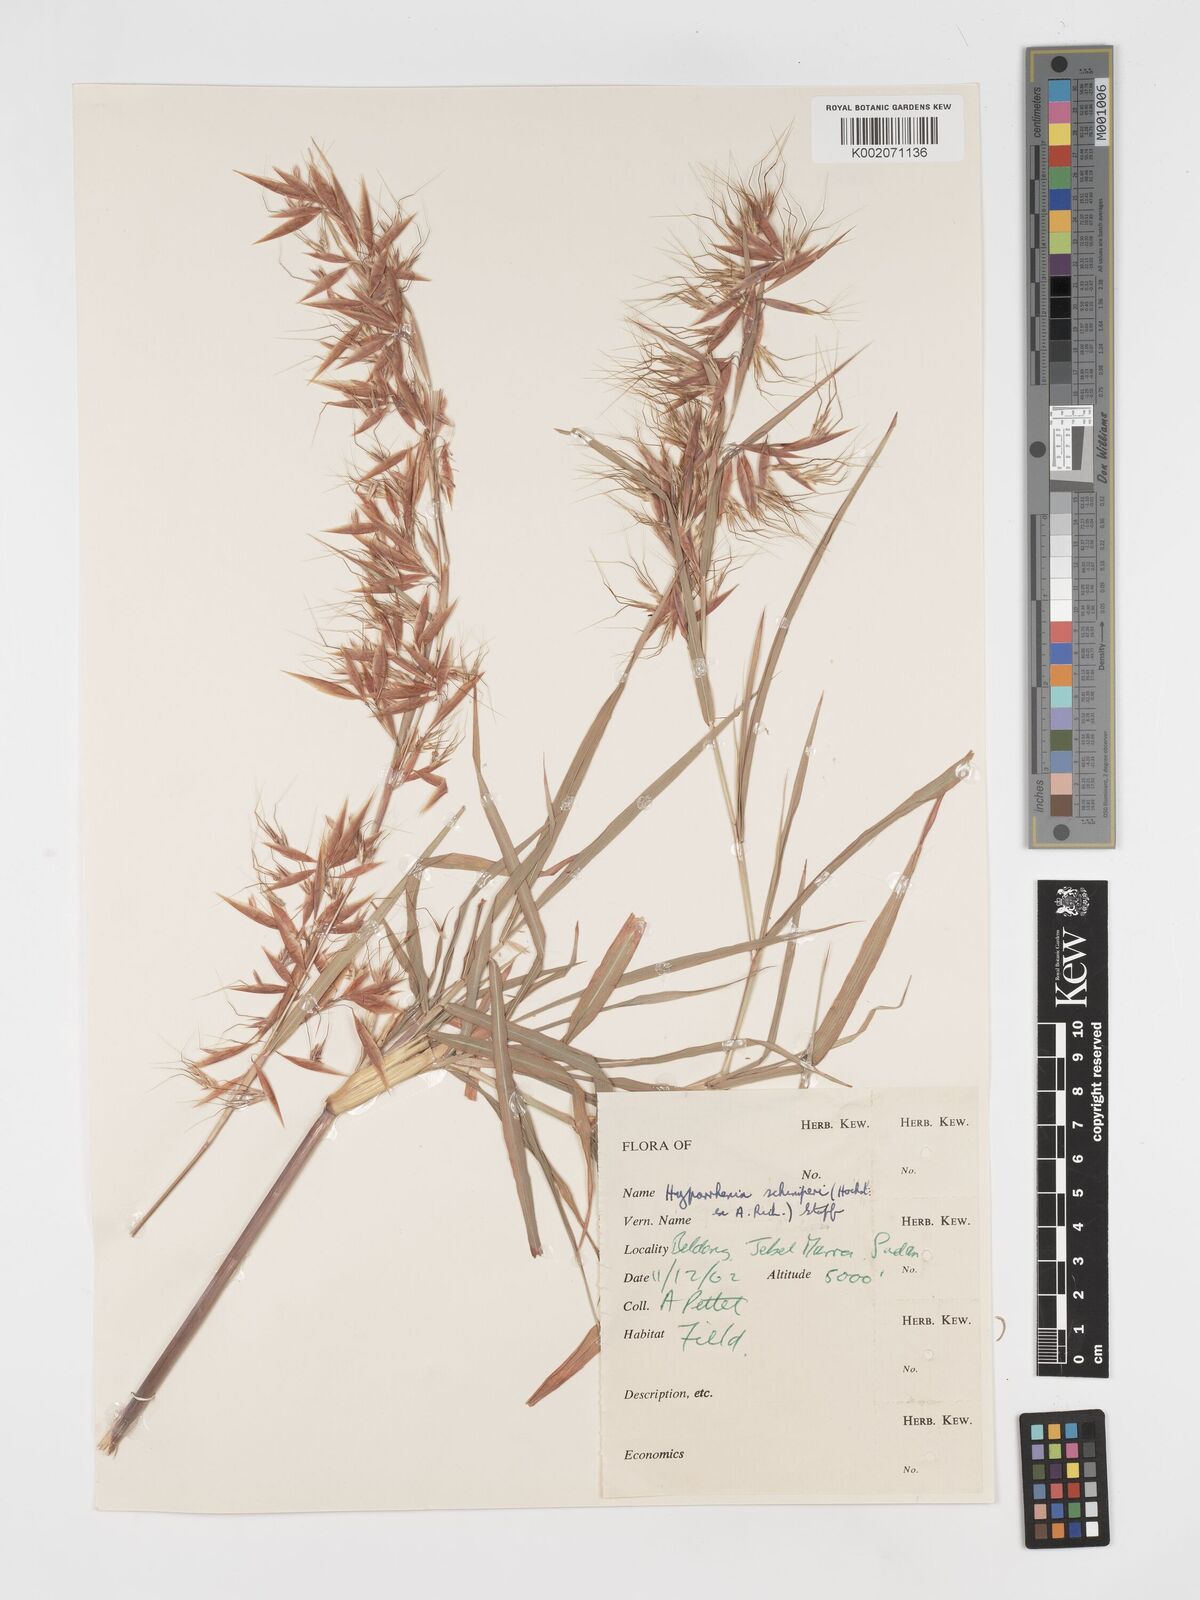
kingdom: Plantae
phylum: Tracheophyta
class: Liliopsida
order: Poales
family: Poaceae
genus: Hyparrhenia
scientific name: Hyparrhenia schimperi
